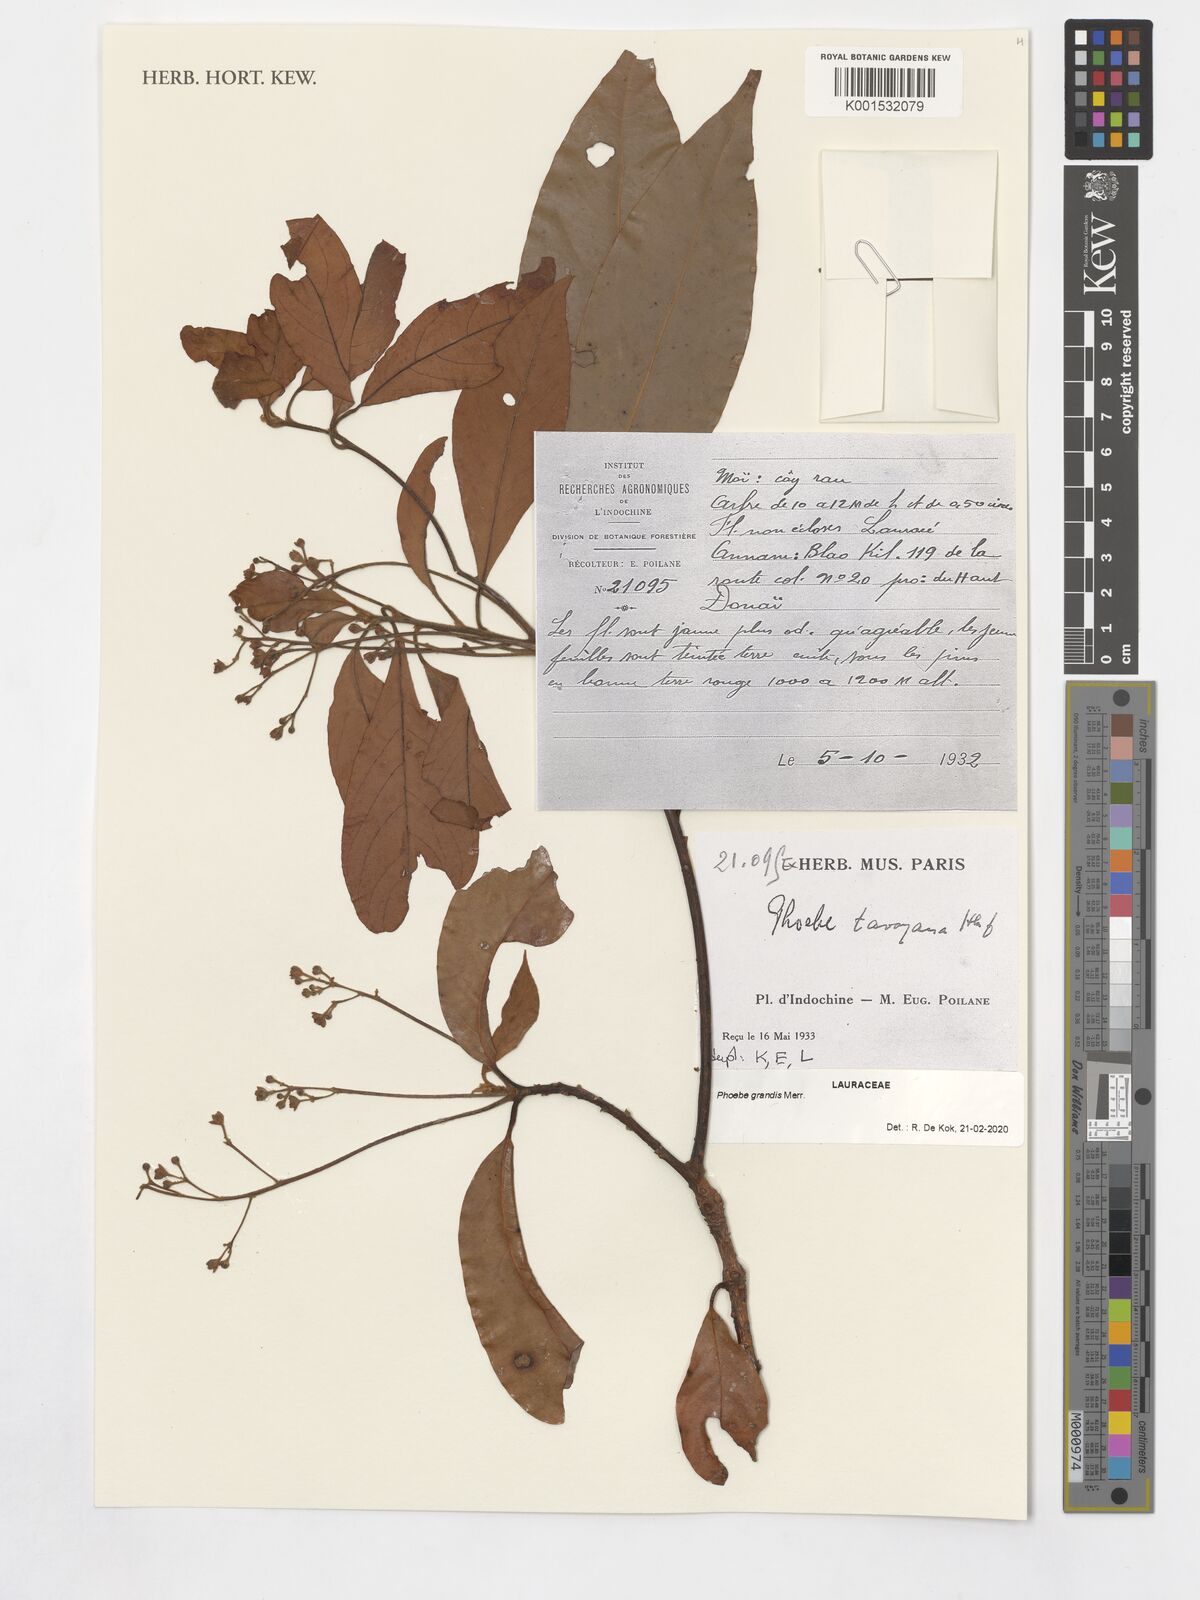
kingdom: Plantae
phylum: Tracheophyta
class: Magnoliopsida
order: Laurales
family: Lauraceae
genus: Phoebe
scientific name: Phoebe grandis
